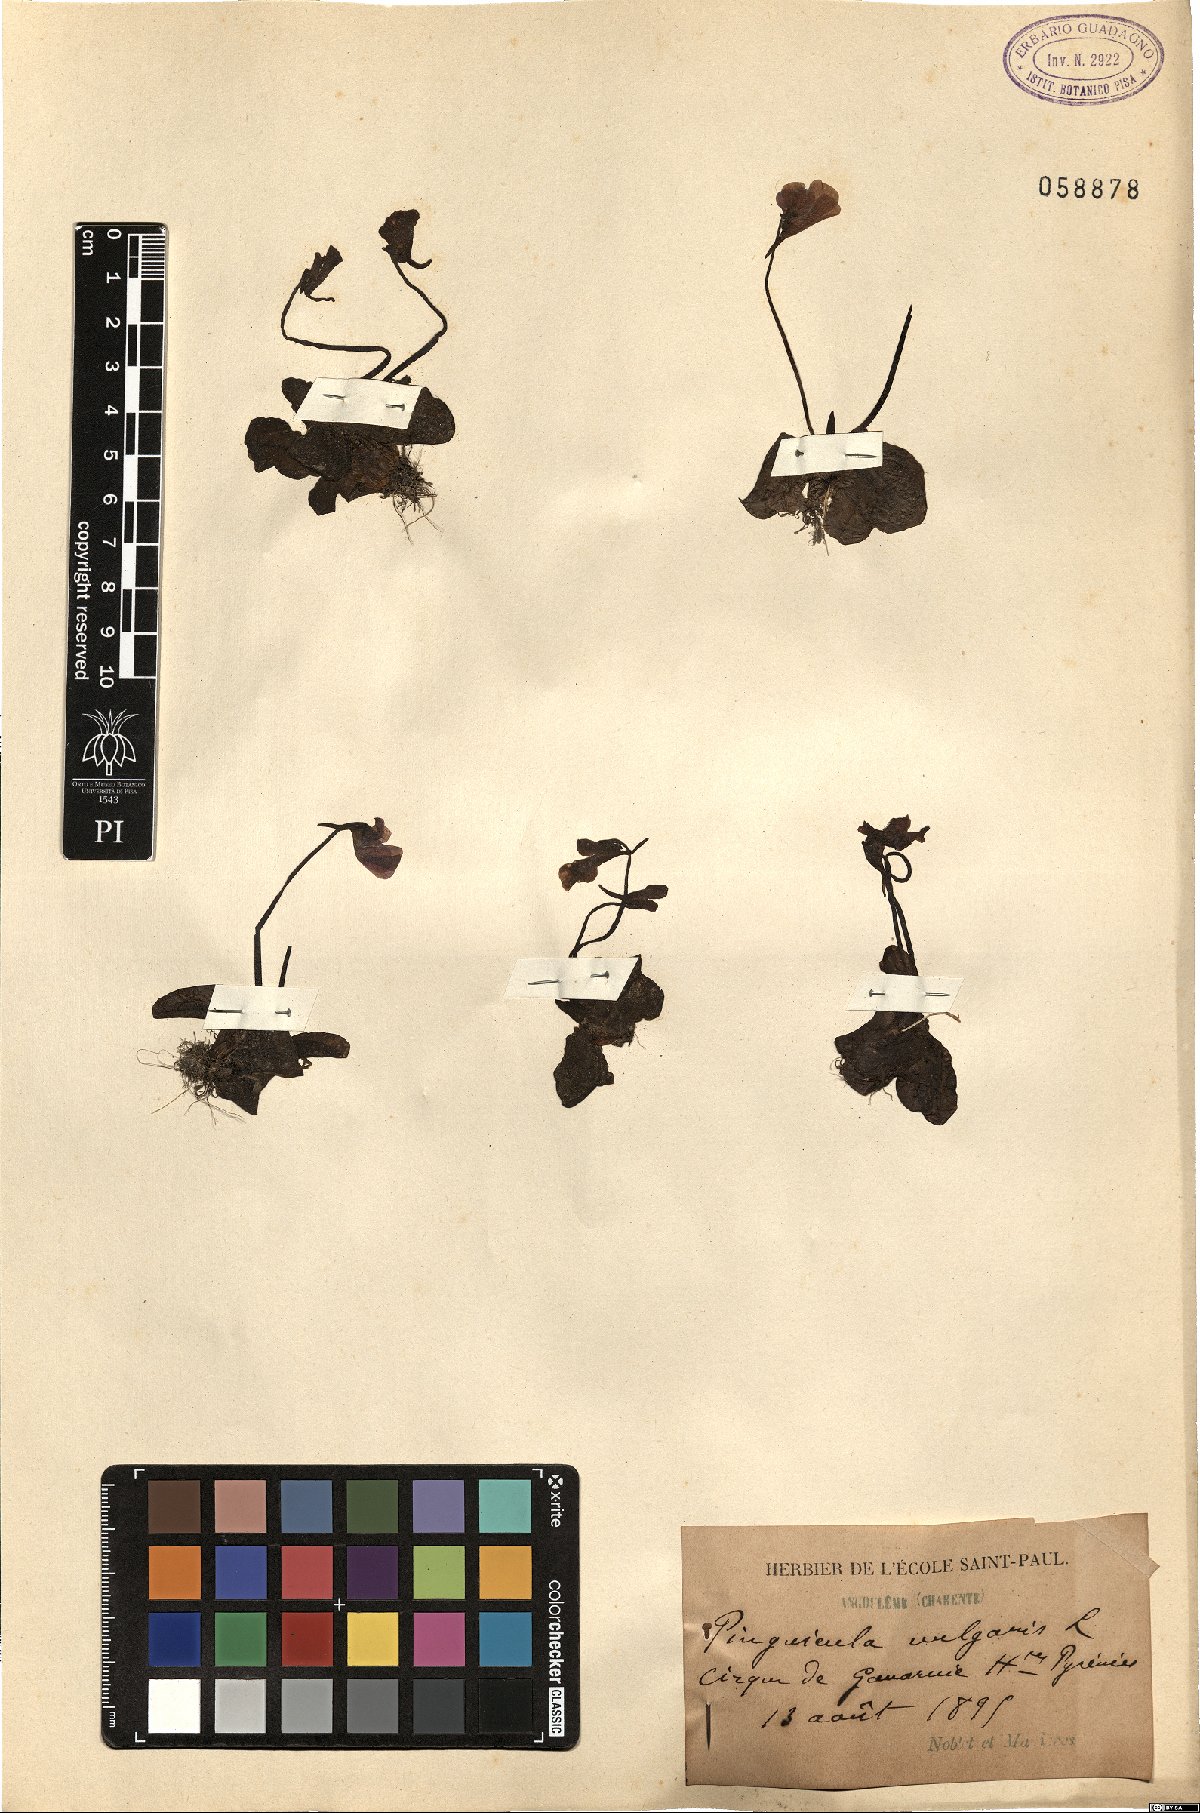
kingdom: Plantae
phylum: Tracheophyta
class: Magnoliopsida
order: Lamiales
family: Lentibulariaceae
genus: Pinguicula
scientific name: Pinguicula vulgaris
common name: Common butterwort
